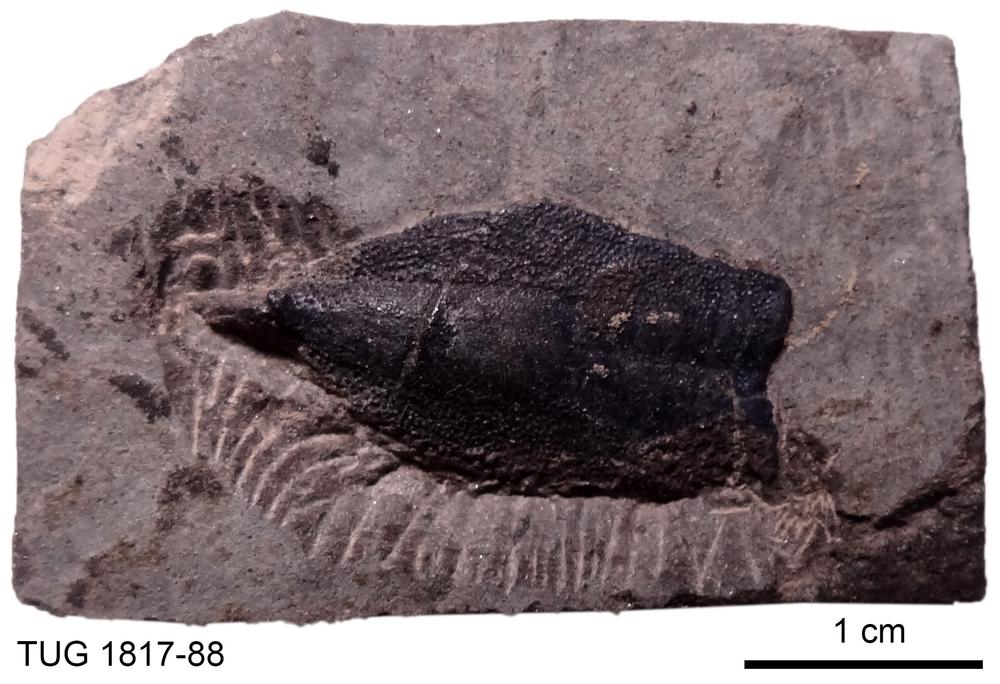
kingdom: Animalia
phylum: Chordata
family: Coccosteidae
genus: Millerosteus
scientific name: Millerosteus minor
